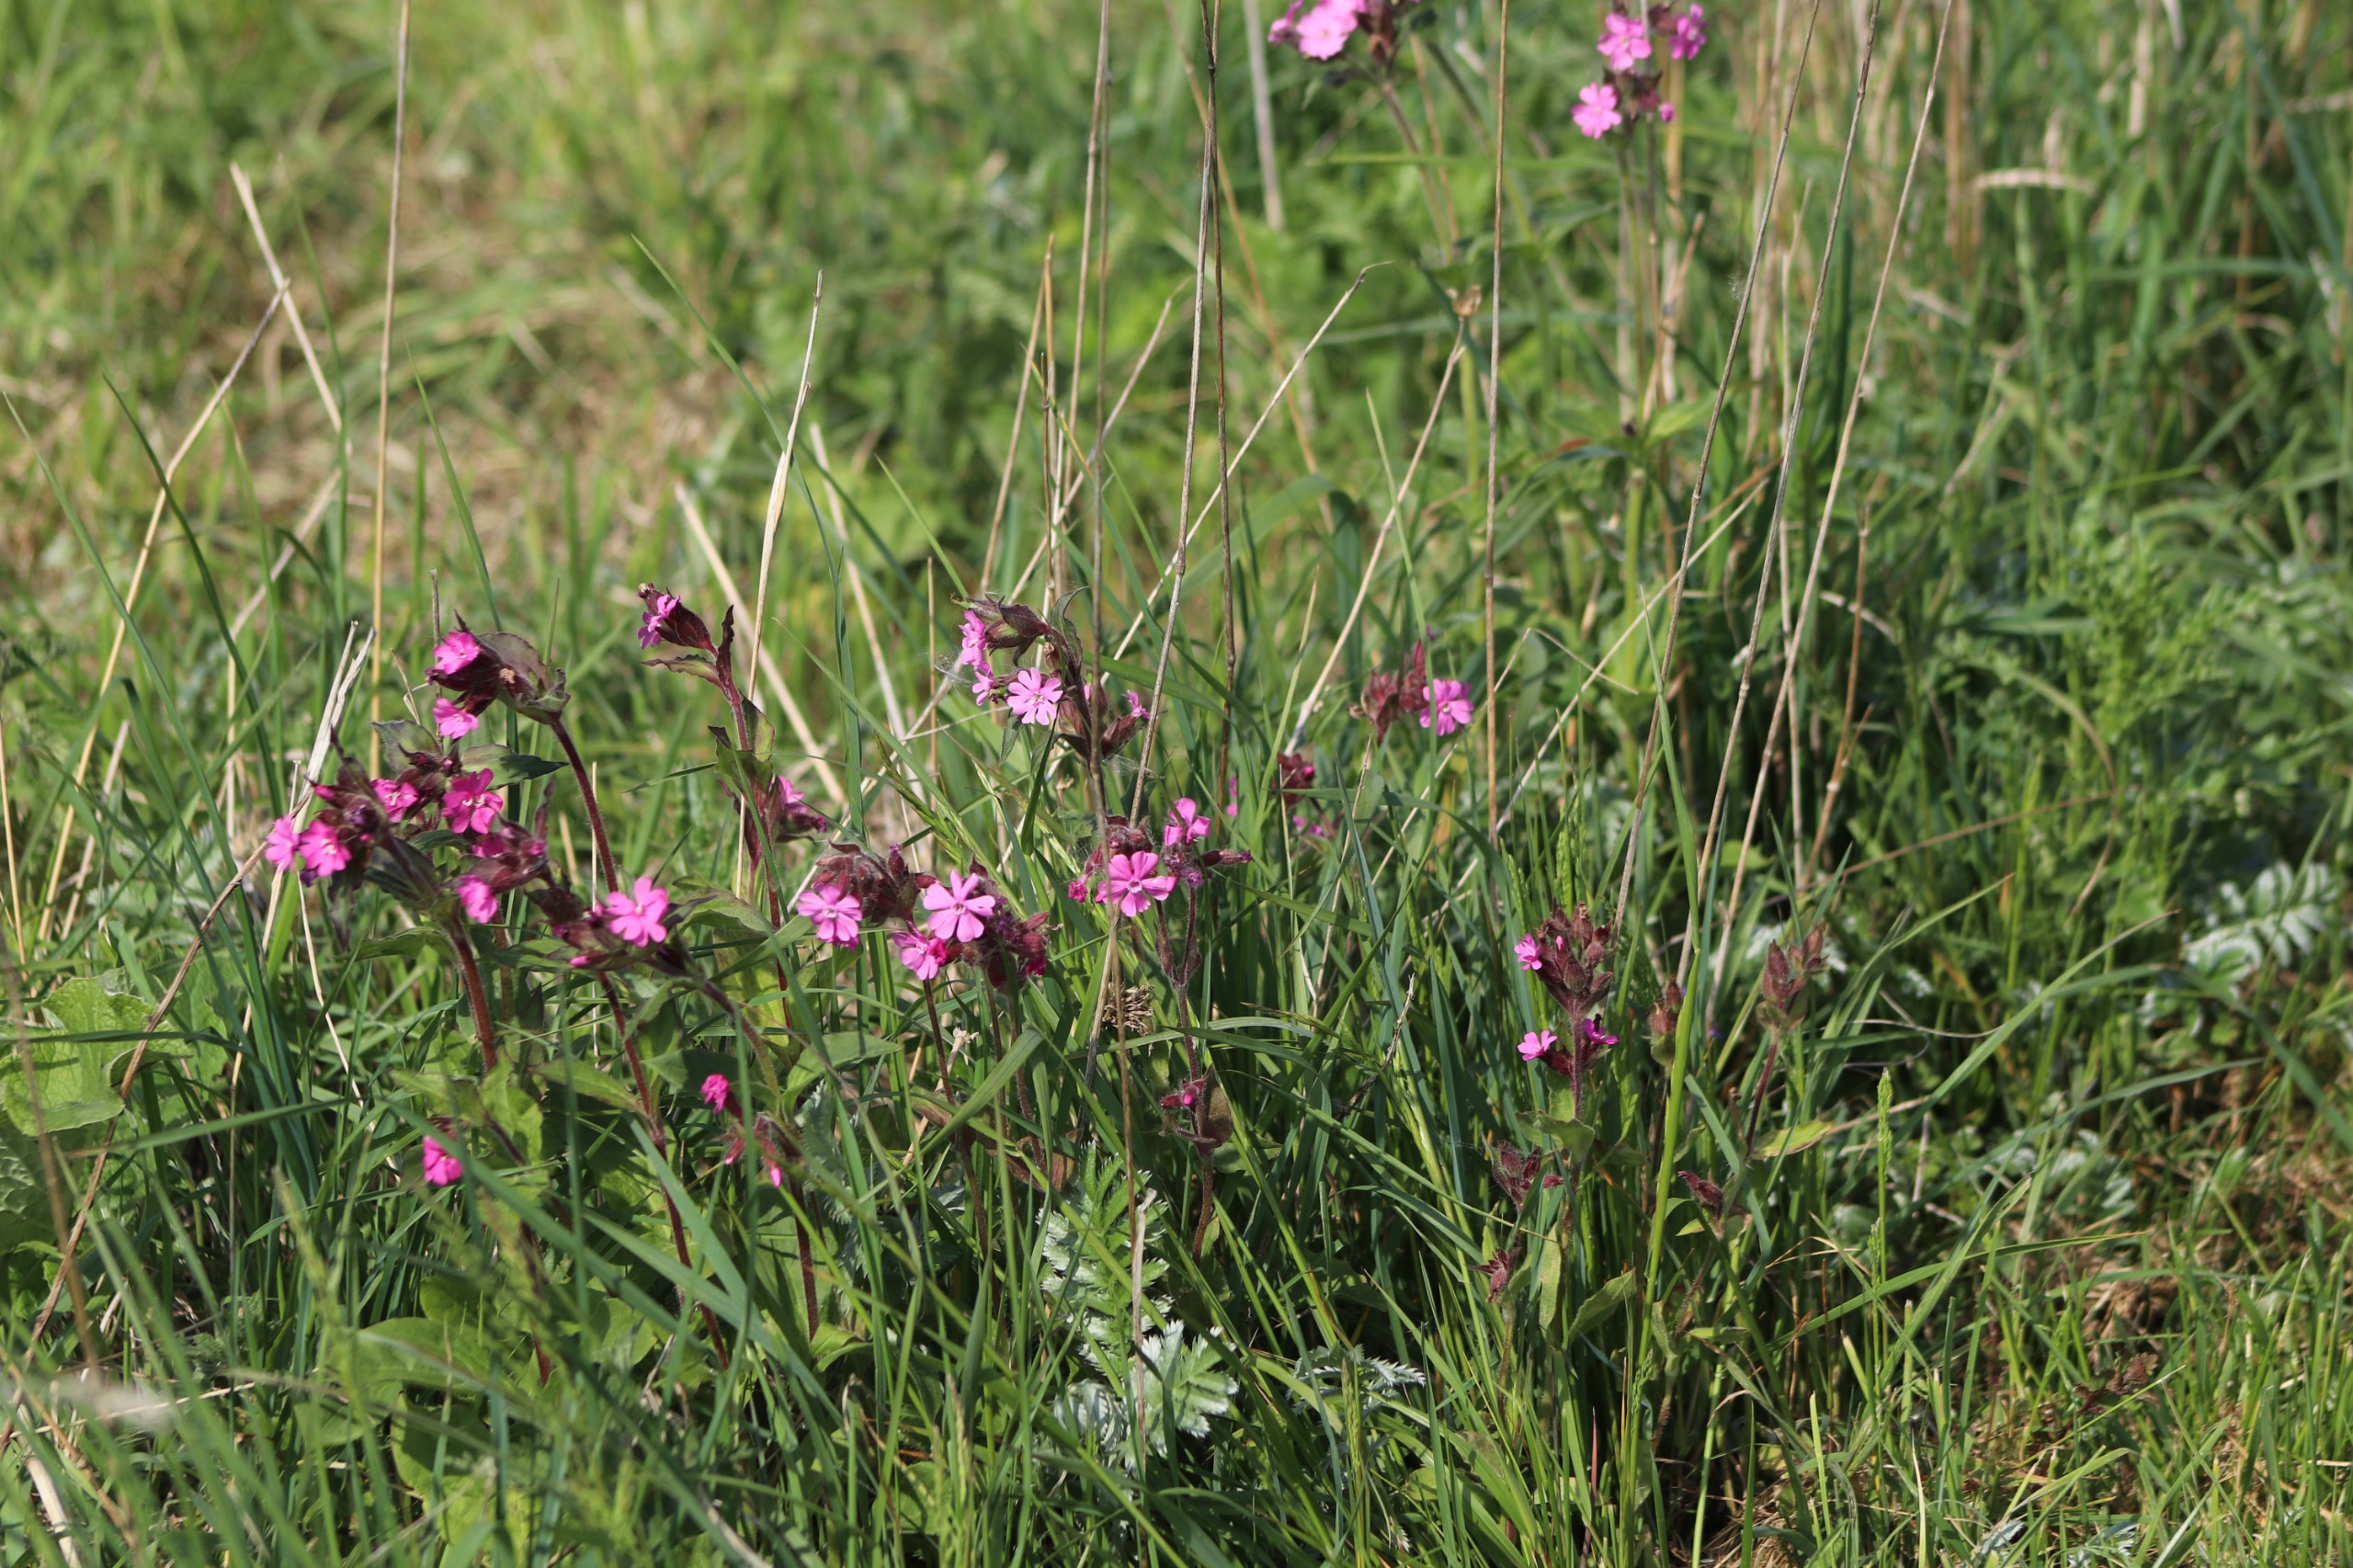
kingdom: Plantae
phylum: Tracheophyta
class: Magnoliopsida
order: Caryophyllales
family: Caryophyllaceae
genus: Silene
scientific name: Silene dioica
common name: Dagpragtstjerne
